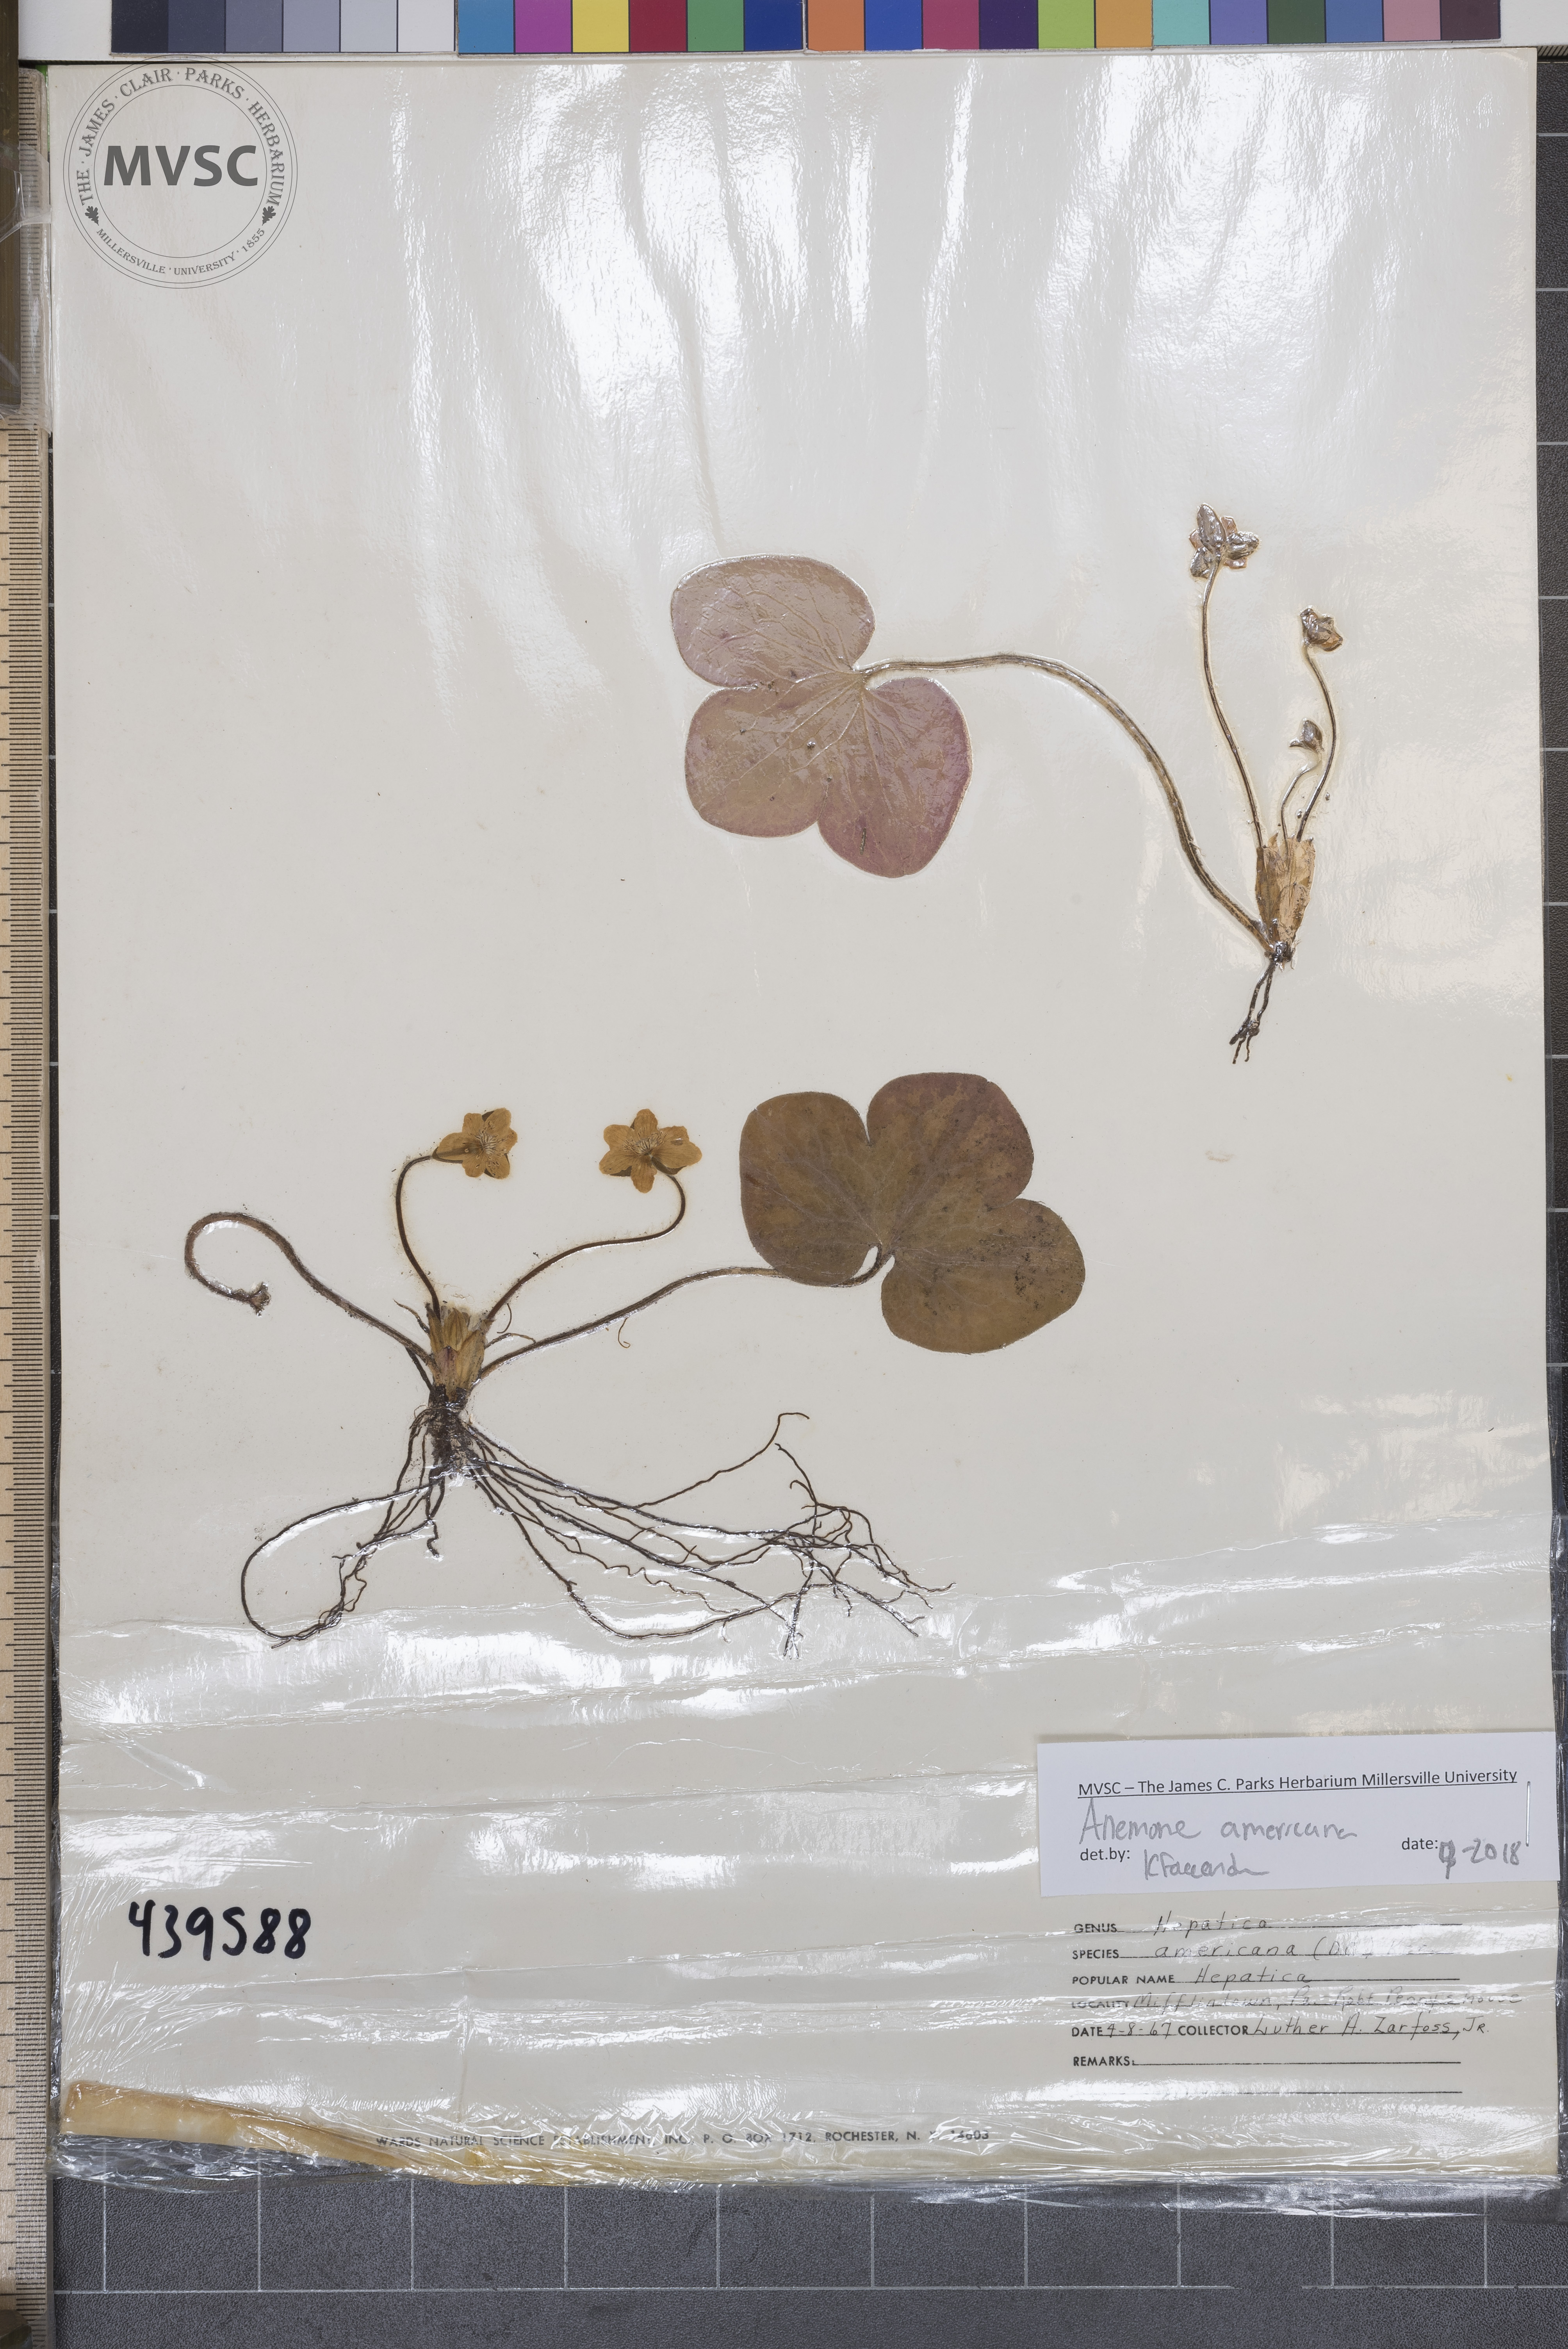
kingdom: Plantae
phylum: Tracheophyta
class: Magnoliopsida
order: Ranunculales
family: Ranunculaceae
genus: Hepatica
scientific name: Hepatica americana
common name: American hepatica
